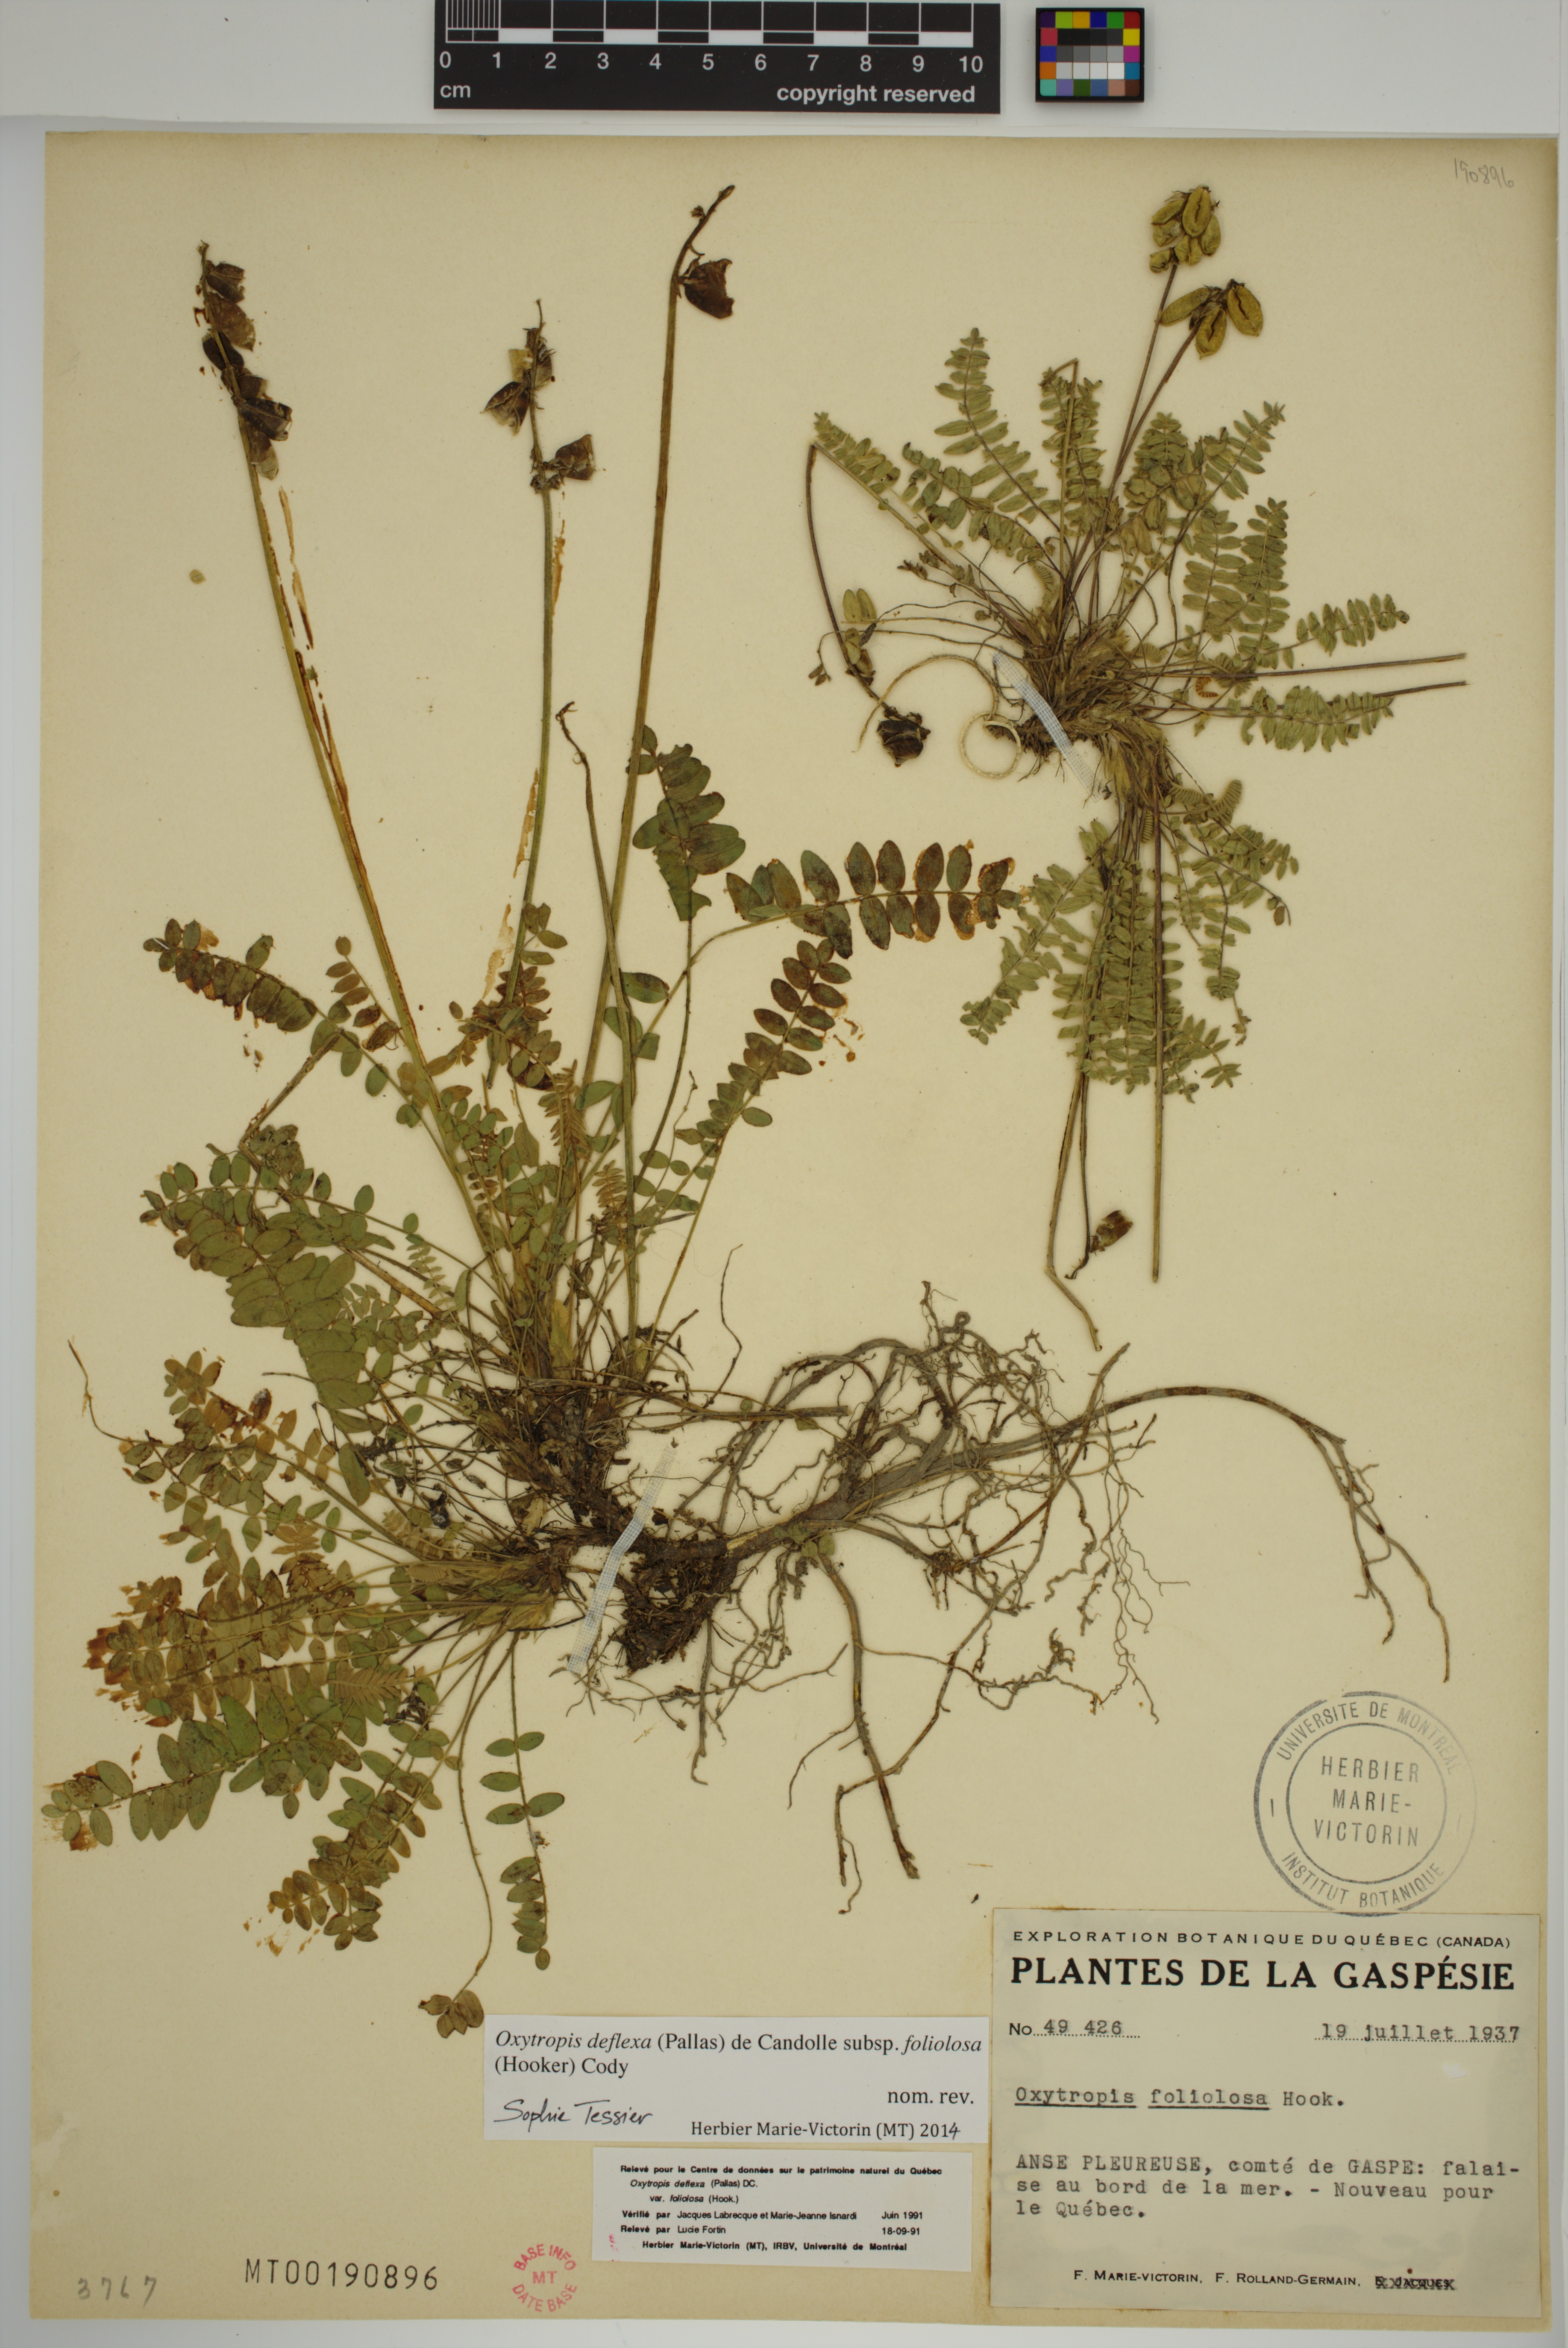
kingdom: Plantae
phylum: Tracheophyta
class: Magnoliopsida
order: Fabales
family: Fabaceae
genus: Oxytropis
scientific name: Oxytropis deflexa
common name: Stemmed oxytrope
